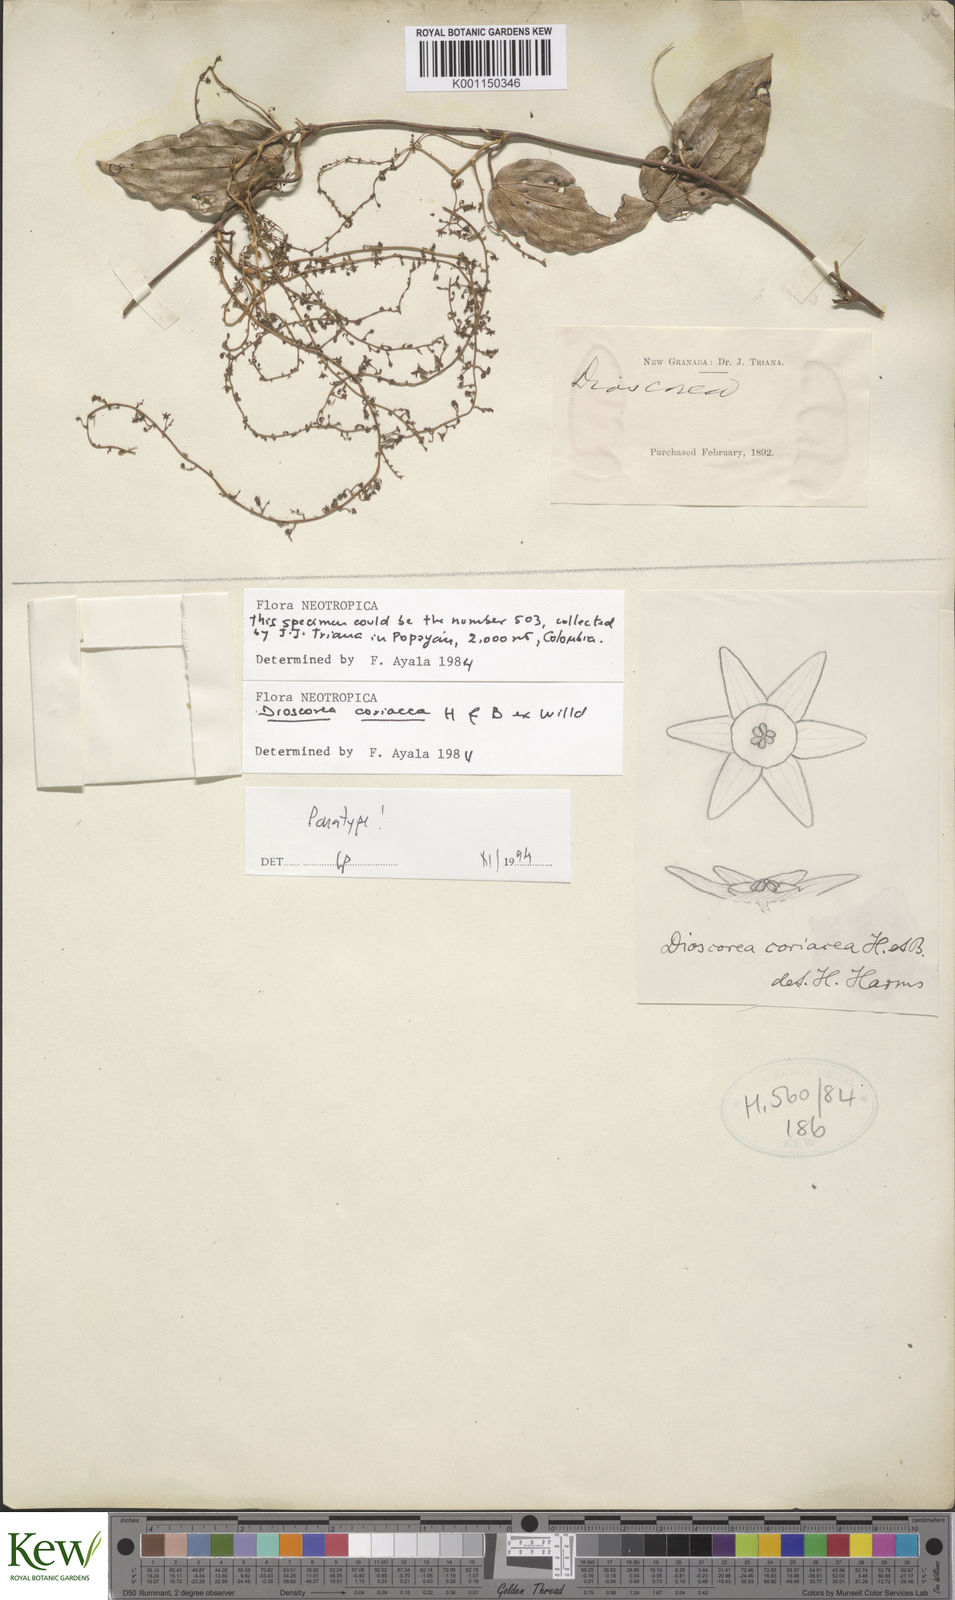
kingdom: Plantae
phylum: Tracheophyta
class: Liliopsida
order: Dioscoreales
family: Dioscoreaceae
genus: Dioscorea
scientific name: Dioscorea coriacea
